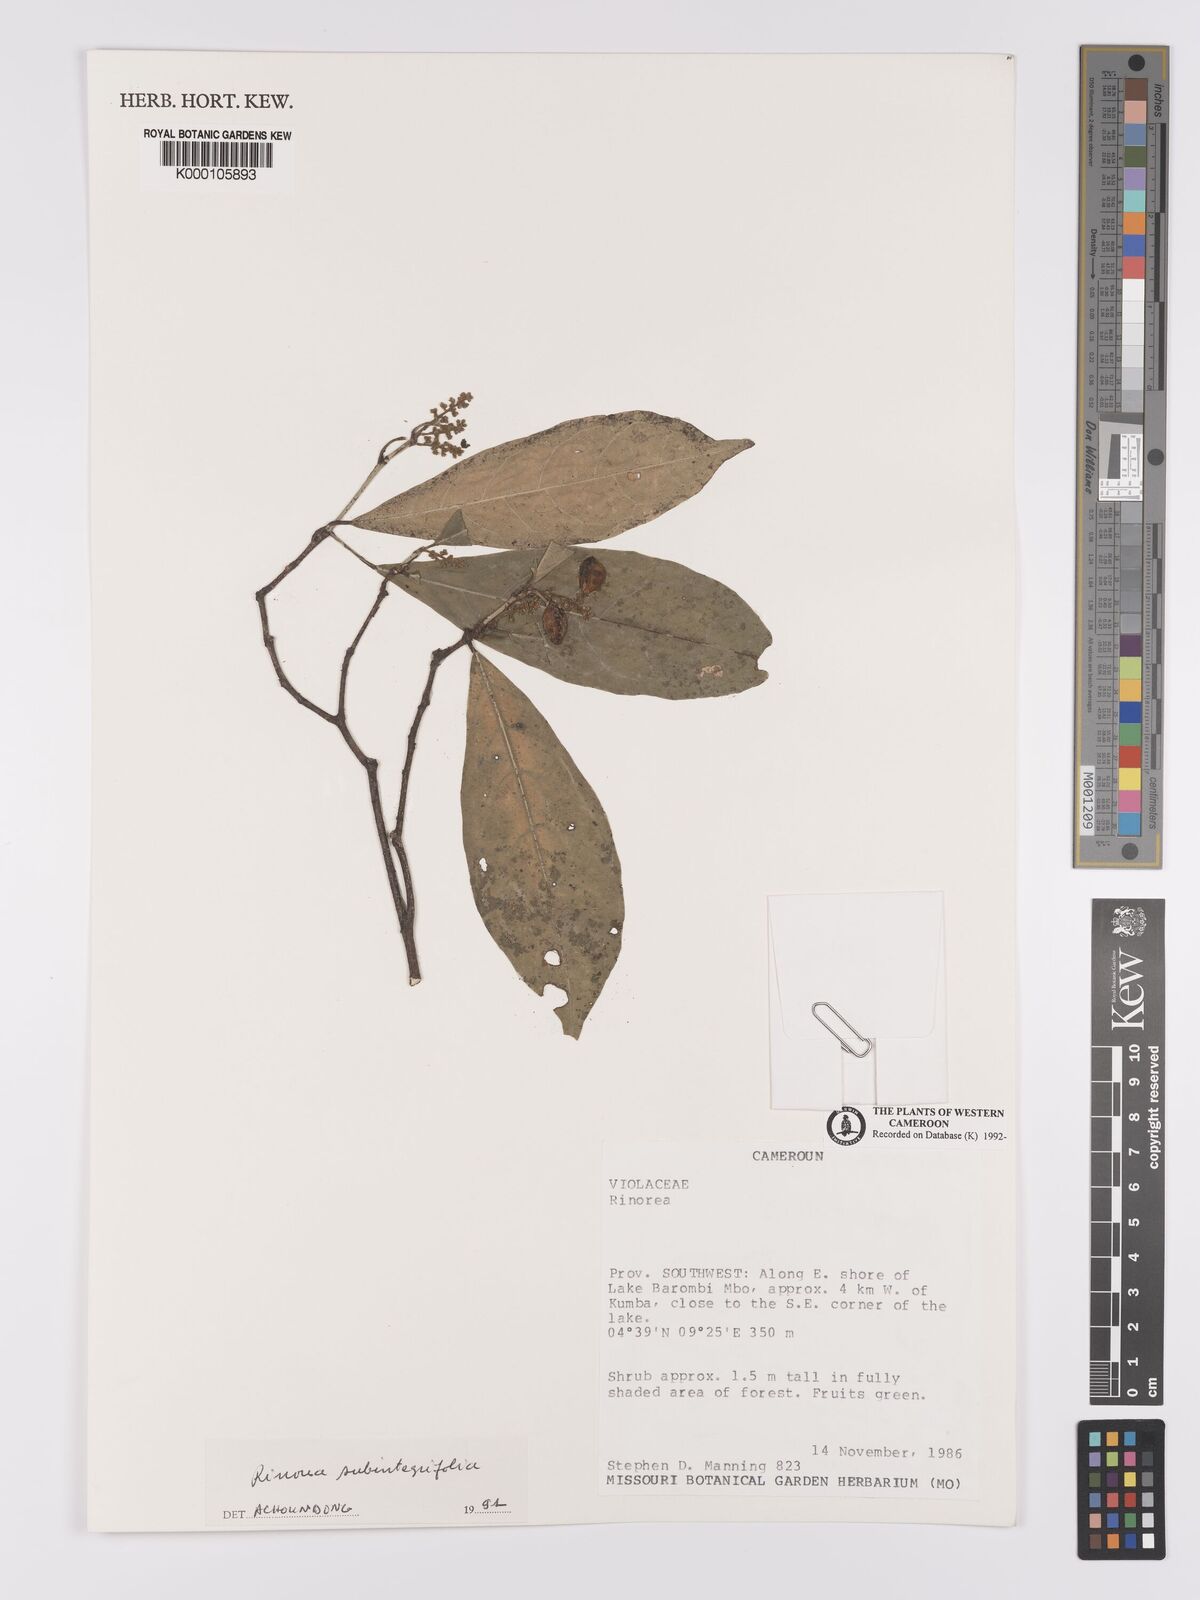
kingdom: Plantae
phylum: Tracheophyta
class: Magnoliopsida
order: Malpighiales
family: Violaceae
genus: Rinorea
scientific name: Rinorea subintegrifolia
